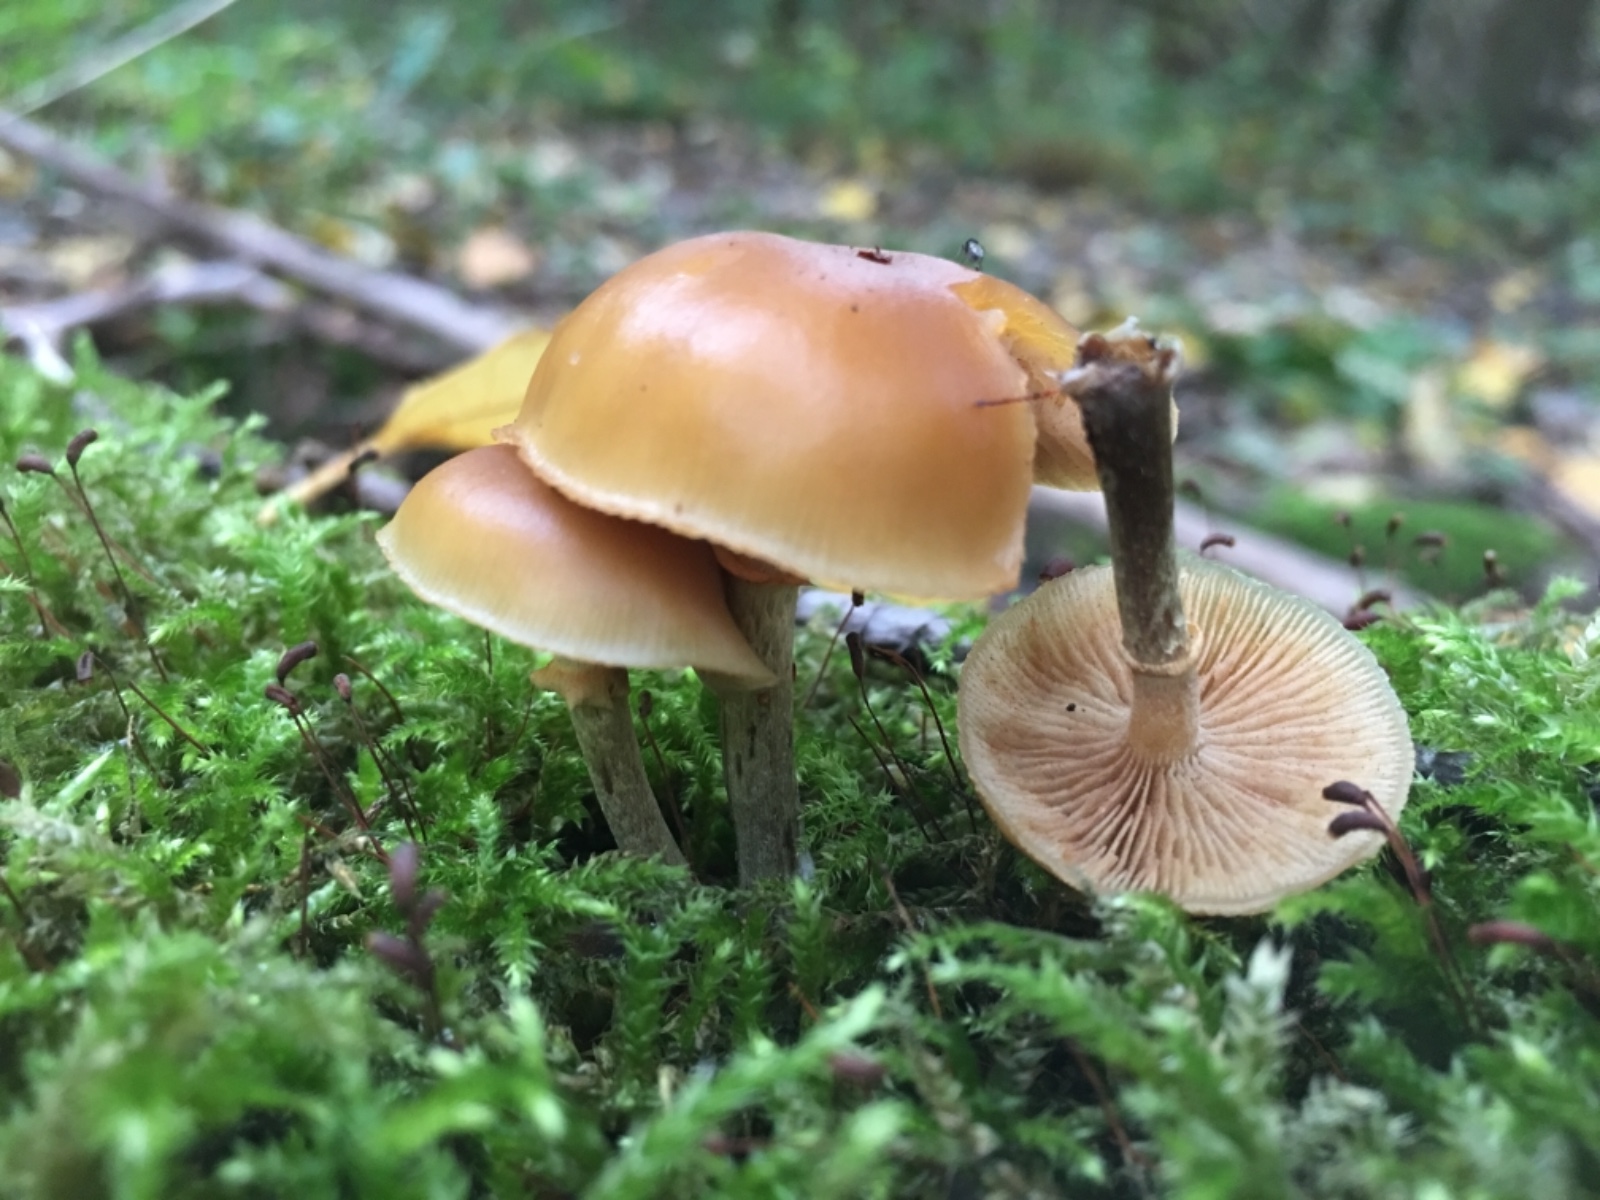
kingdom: Fungi
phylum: Basidiomycota
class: Agaricomycetes
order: Agaricales
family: Hymenogastraceae
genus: Galerina
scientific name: Galerina marginata
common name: randbæltet hjelmhat
